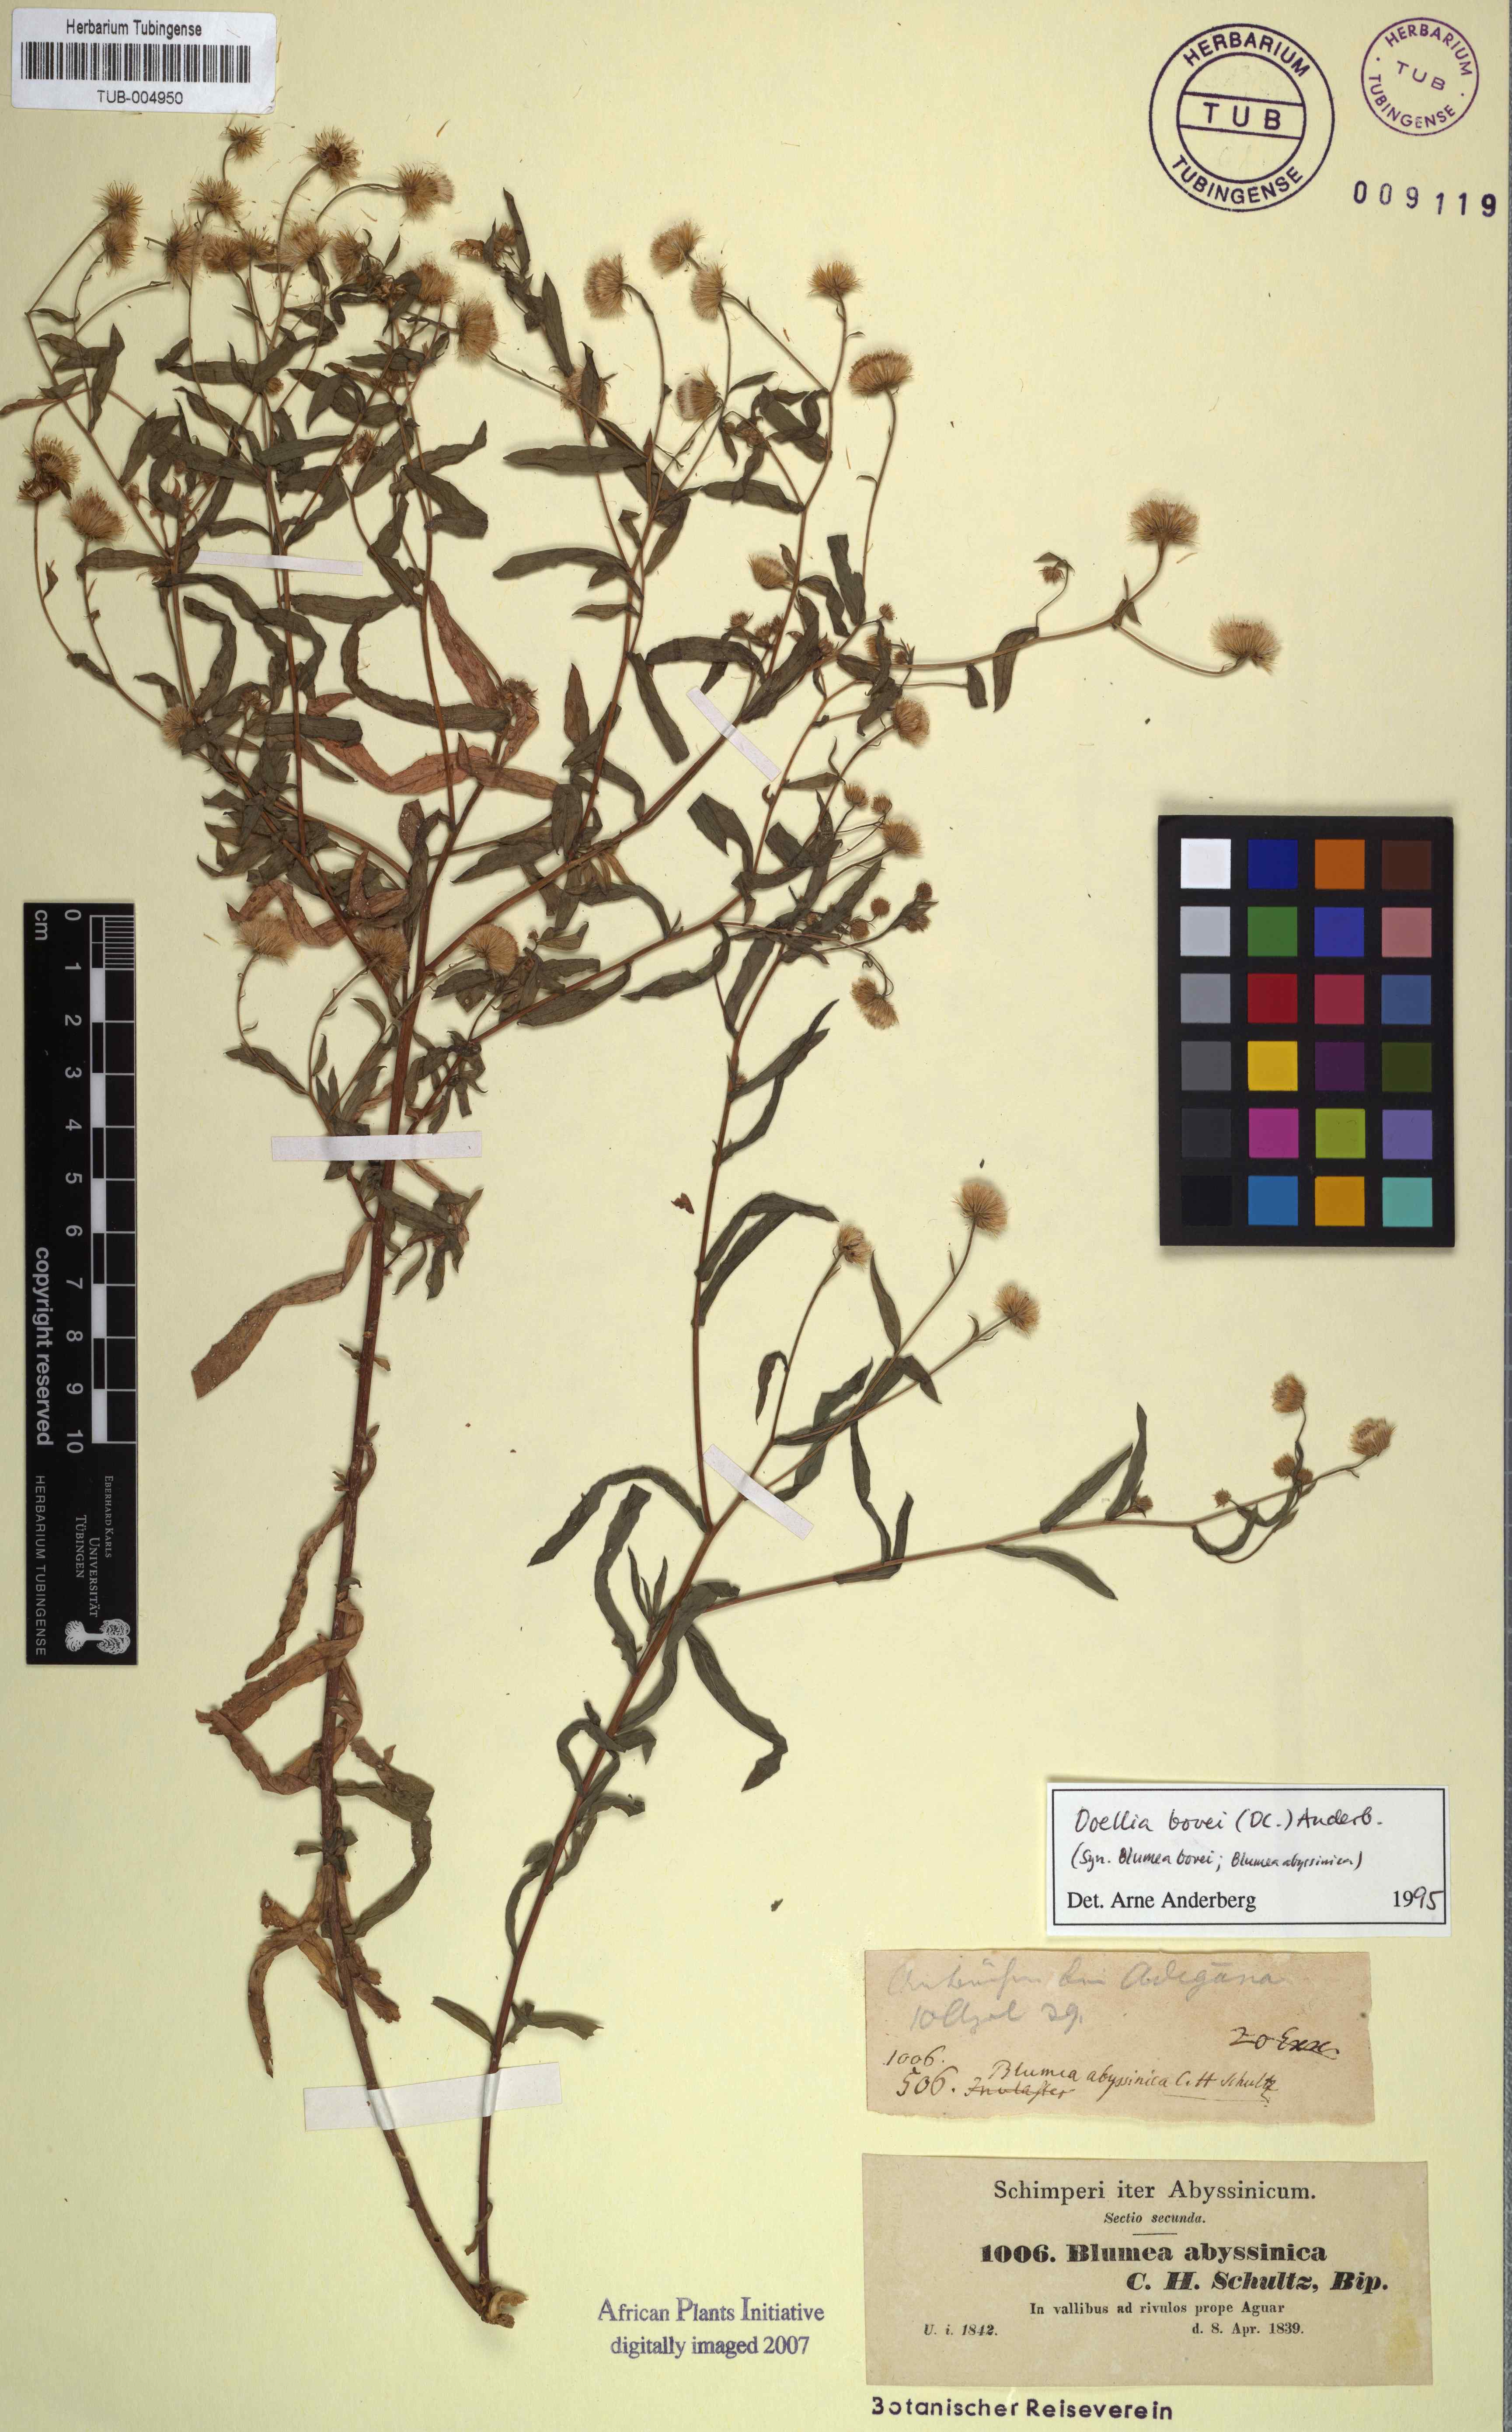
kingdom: Plantae
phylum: Tracheophyta
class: Magnoliopsida
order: Asterales
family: Asteraceae
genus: Doellia
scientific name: Doellia bovei
